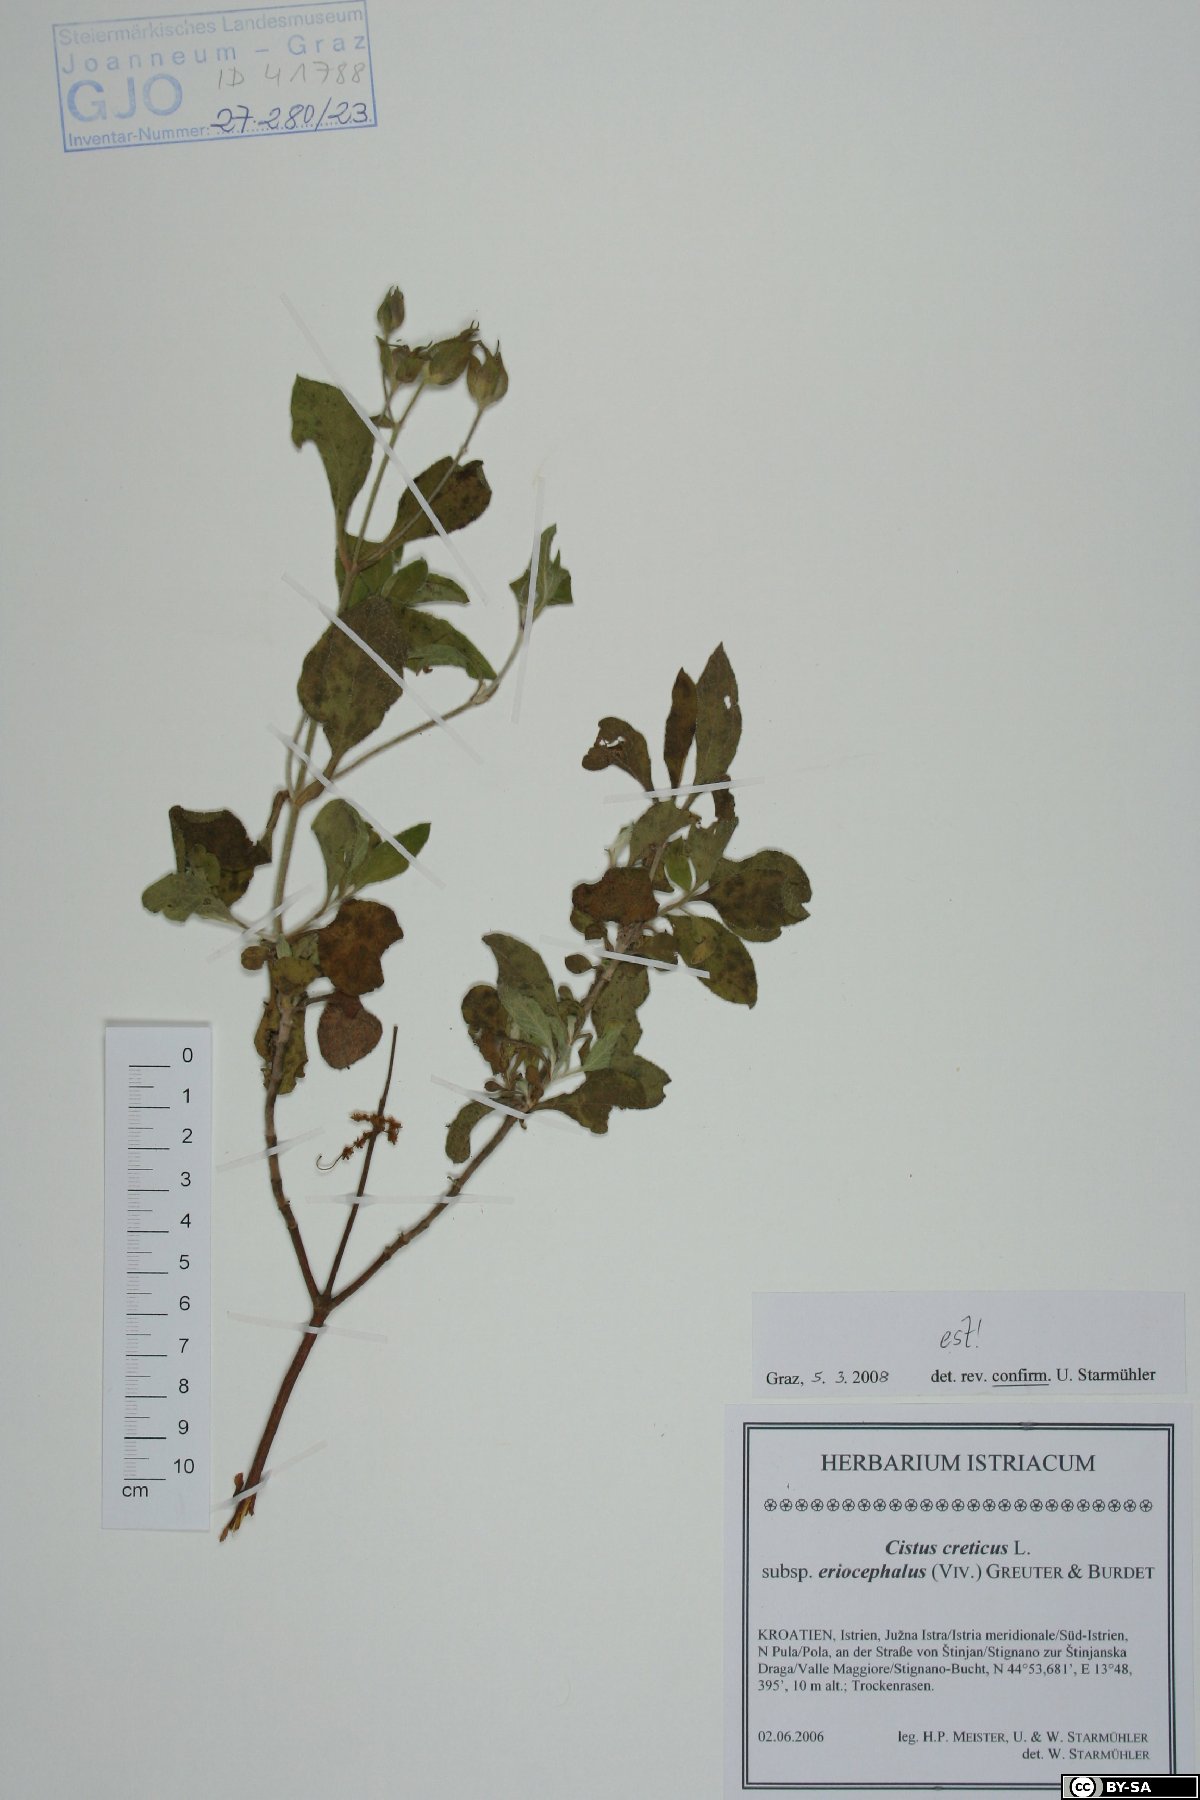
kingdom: Plantae
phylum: Tracheophyta
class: Magnoliopsida
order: Malvales
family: Cistaceae
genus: Cistus
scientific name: Cistus tauricus
